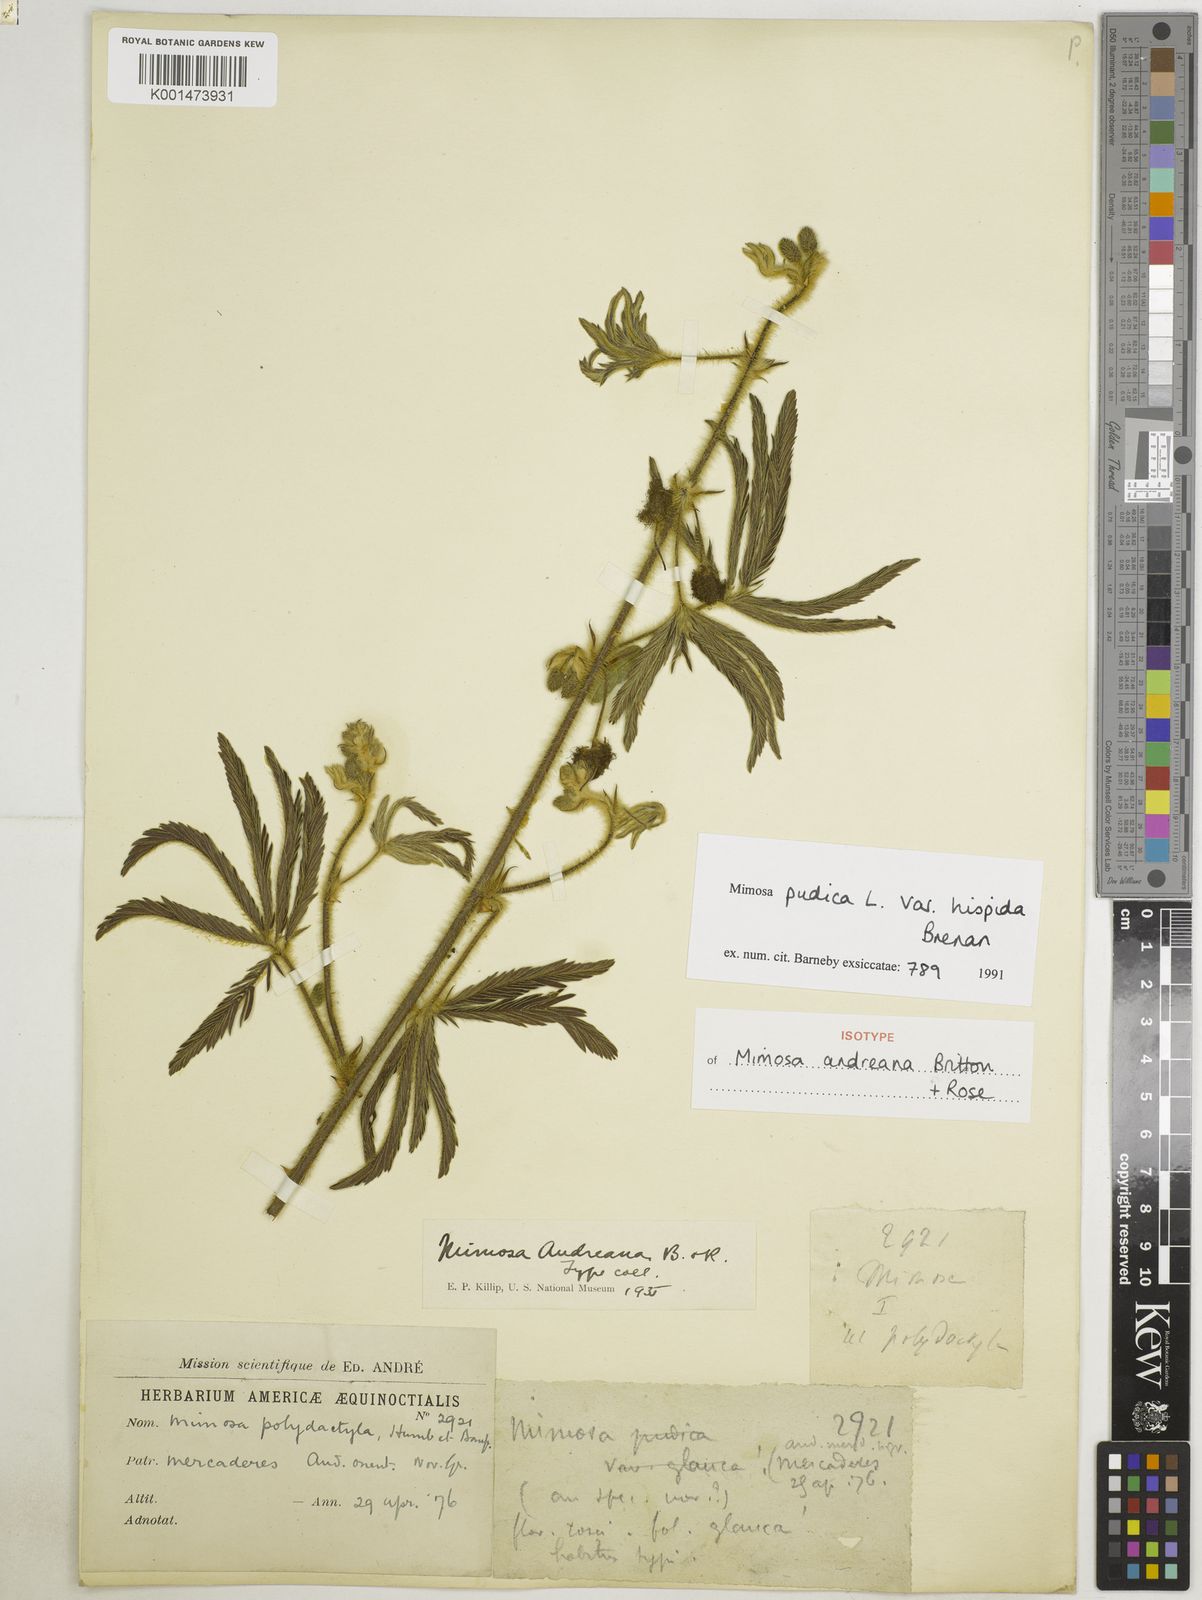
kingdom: Plantae
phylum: Tracheophyta
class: Magnoliopsida
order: Fabales
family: Fabaceae
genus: Mimosa
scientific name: Mimosa pudica
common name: Sensitive plant
